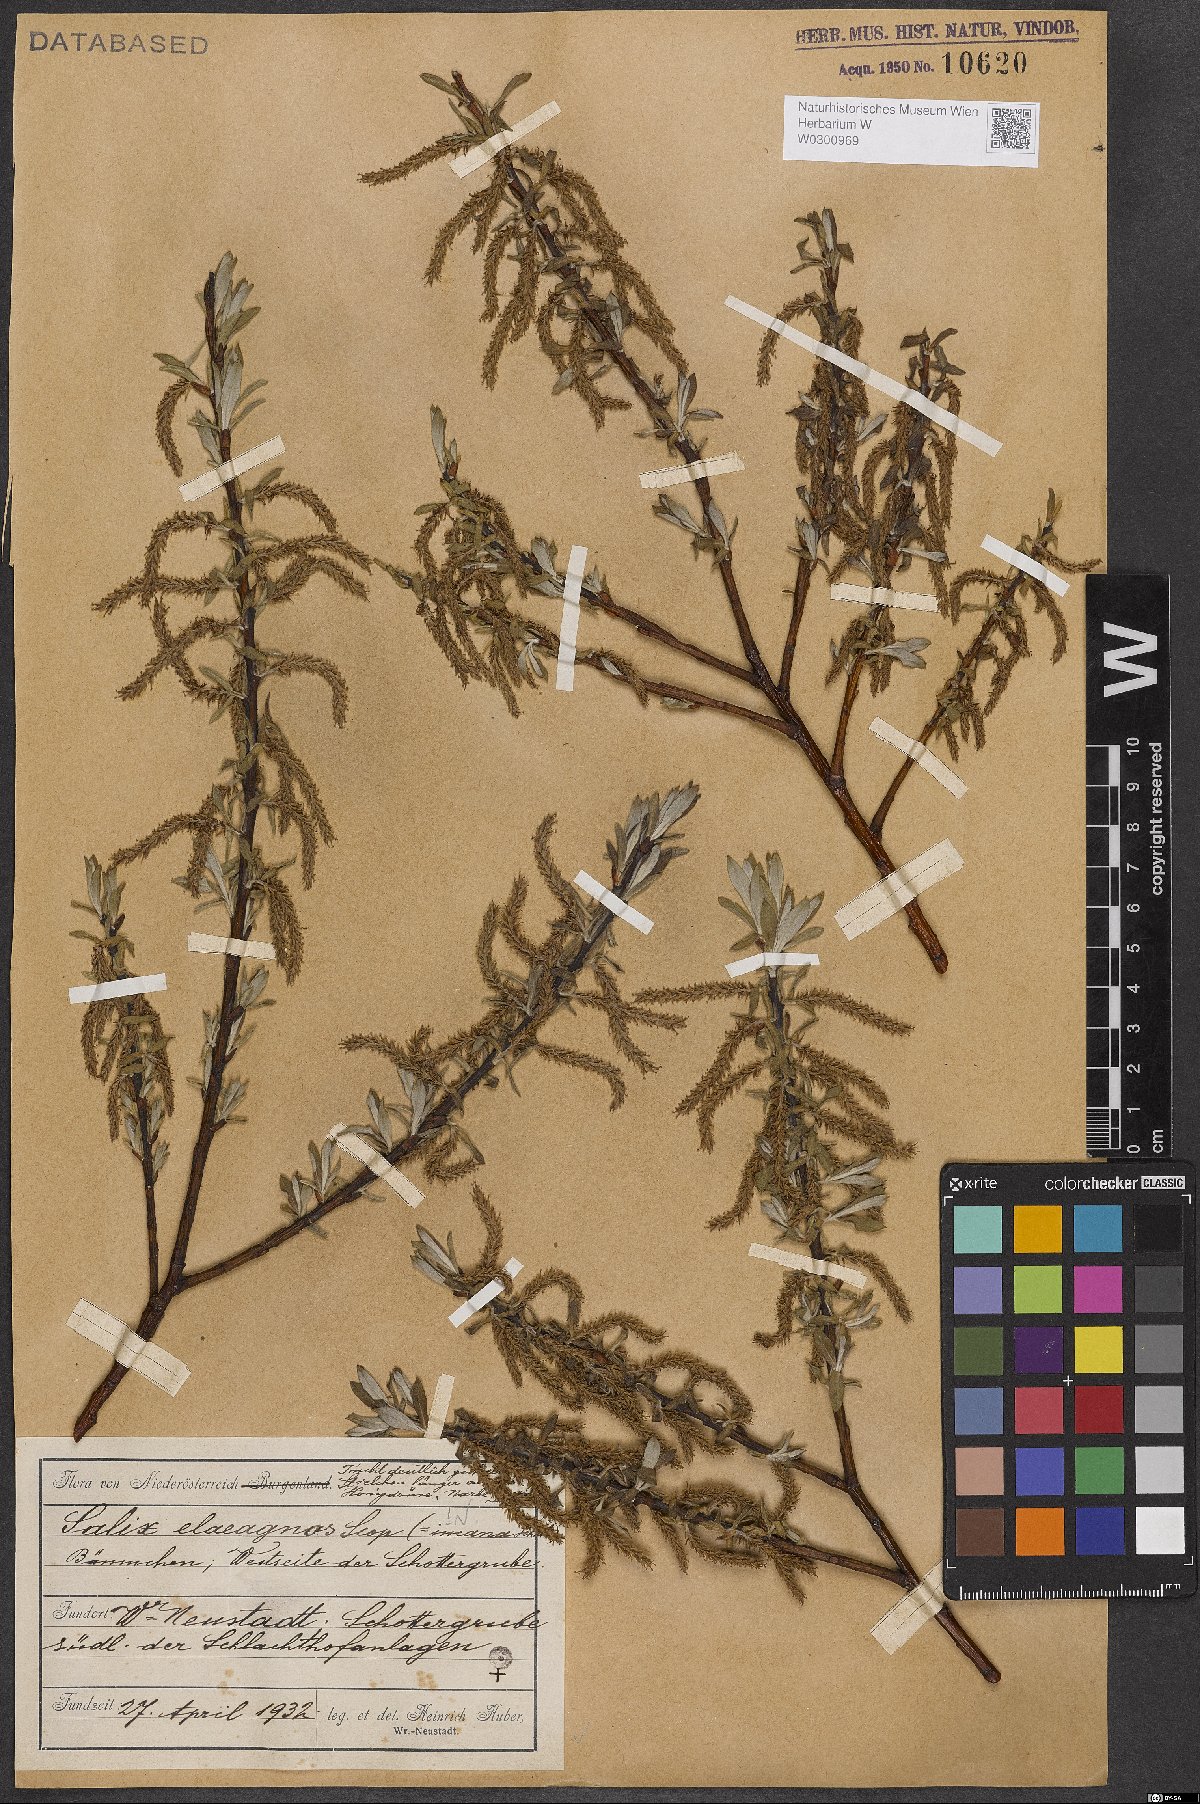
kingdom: Plantae
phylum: Tracheophyta
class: Magnoliopsida
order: Malpighiales
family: Salicaceae
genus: Salix
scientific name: Salix eleagnos
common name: Elaeagnus willow
